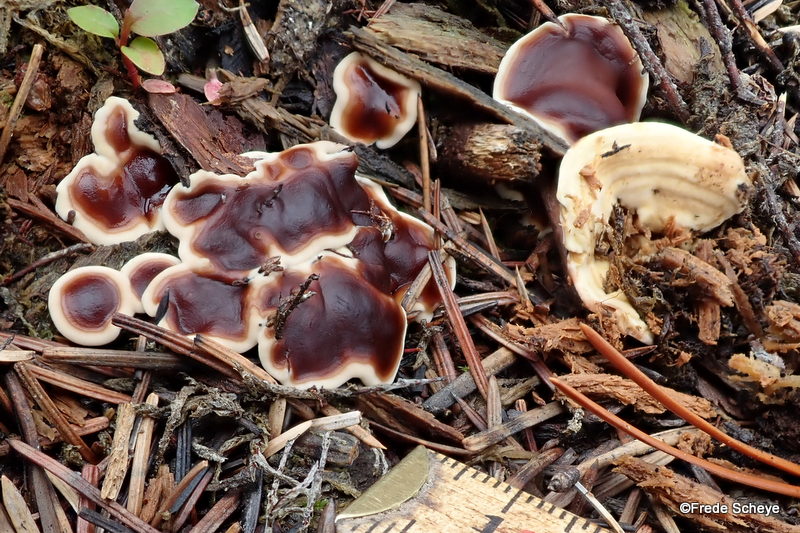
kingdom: Fungi
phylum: Ascomycota
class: Pezizomycetes
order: Pezizales
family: Rhizinaceae
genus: Rhizina
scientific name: Rhizina undulata
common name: rodmorkel
